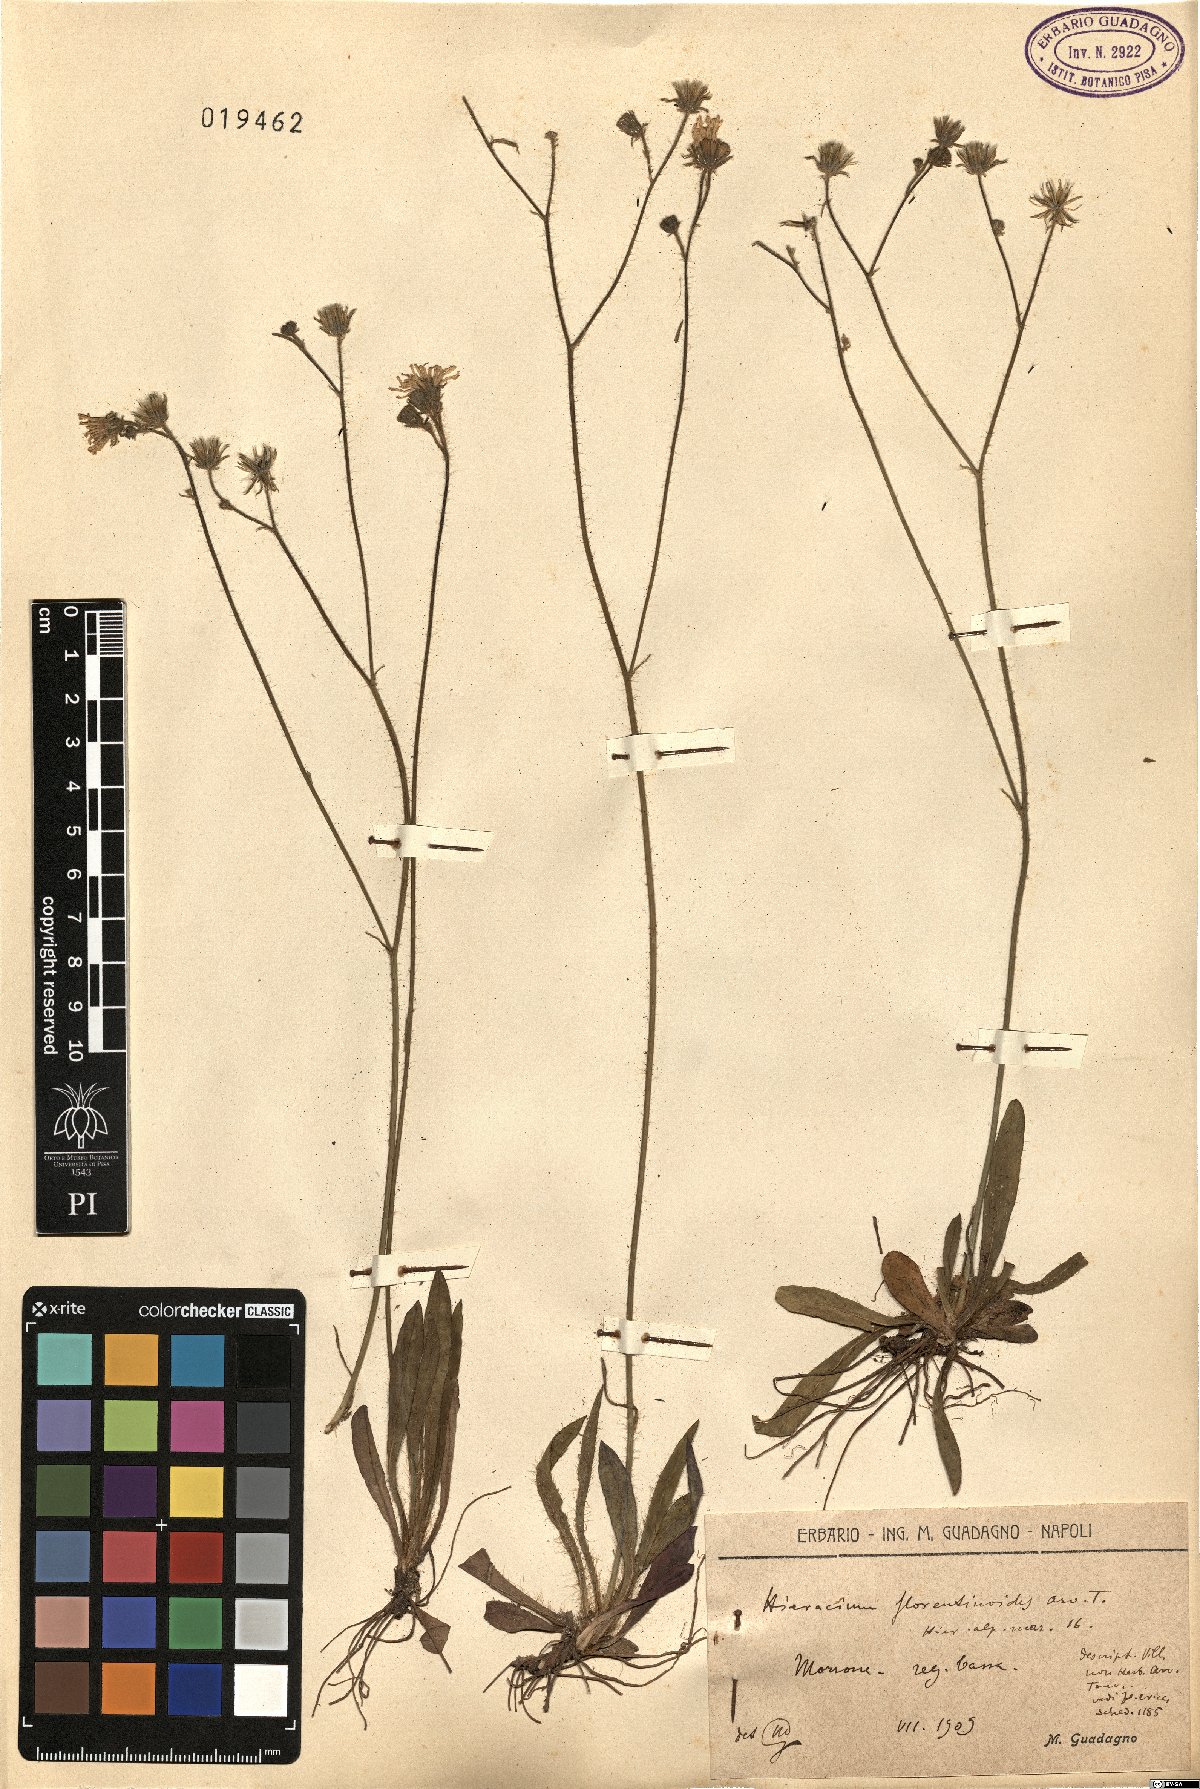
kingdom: Plantae
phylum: Tracheophyta
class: Magnoliopsida
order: Asterales
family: Asteraceae
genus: Pilosella
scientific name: Pilosella visianii
